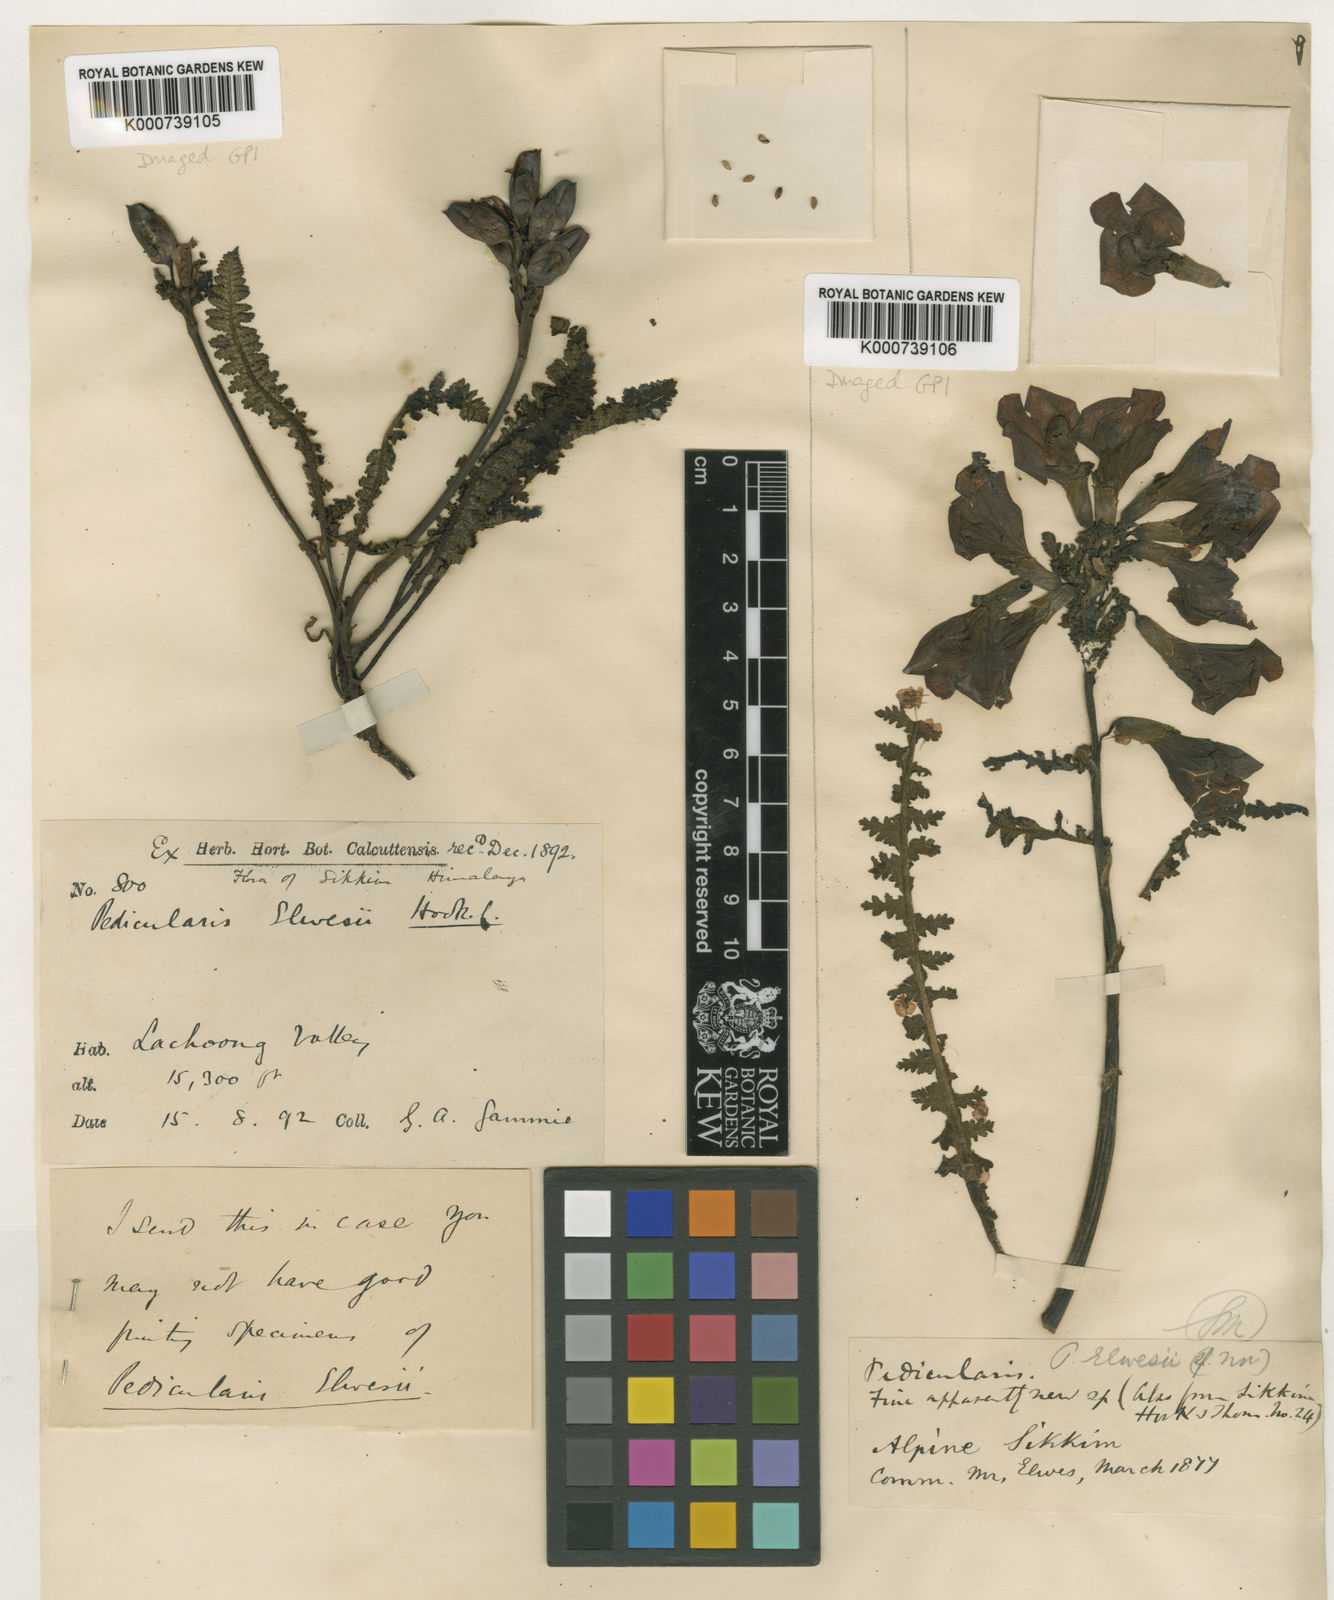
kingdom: Plantae
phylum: Tracheophyta
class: Magnoliopsida
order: Lamiales
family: Orobanchaceae
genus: Pedicularis
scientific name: Pedicularis elwesii
